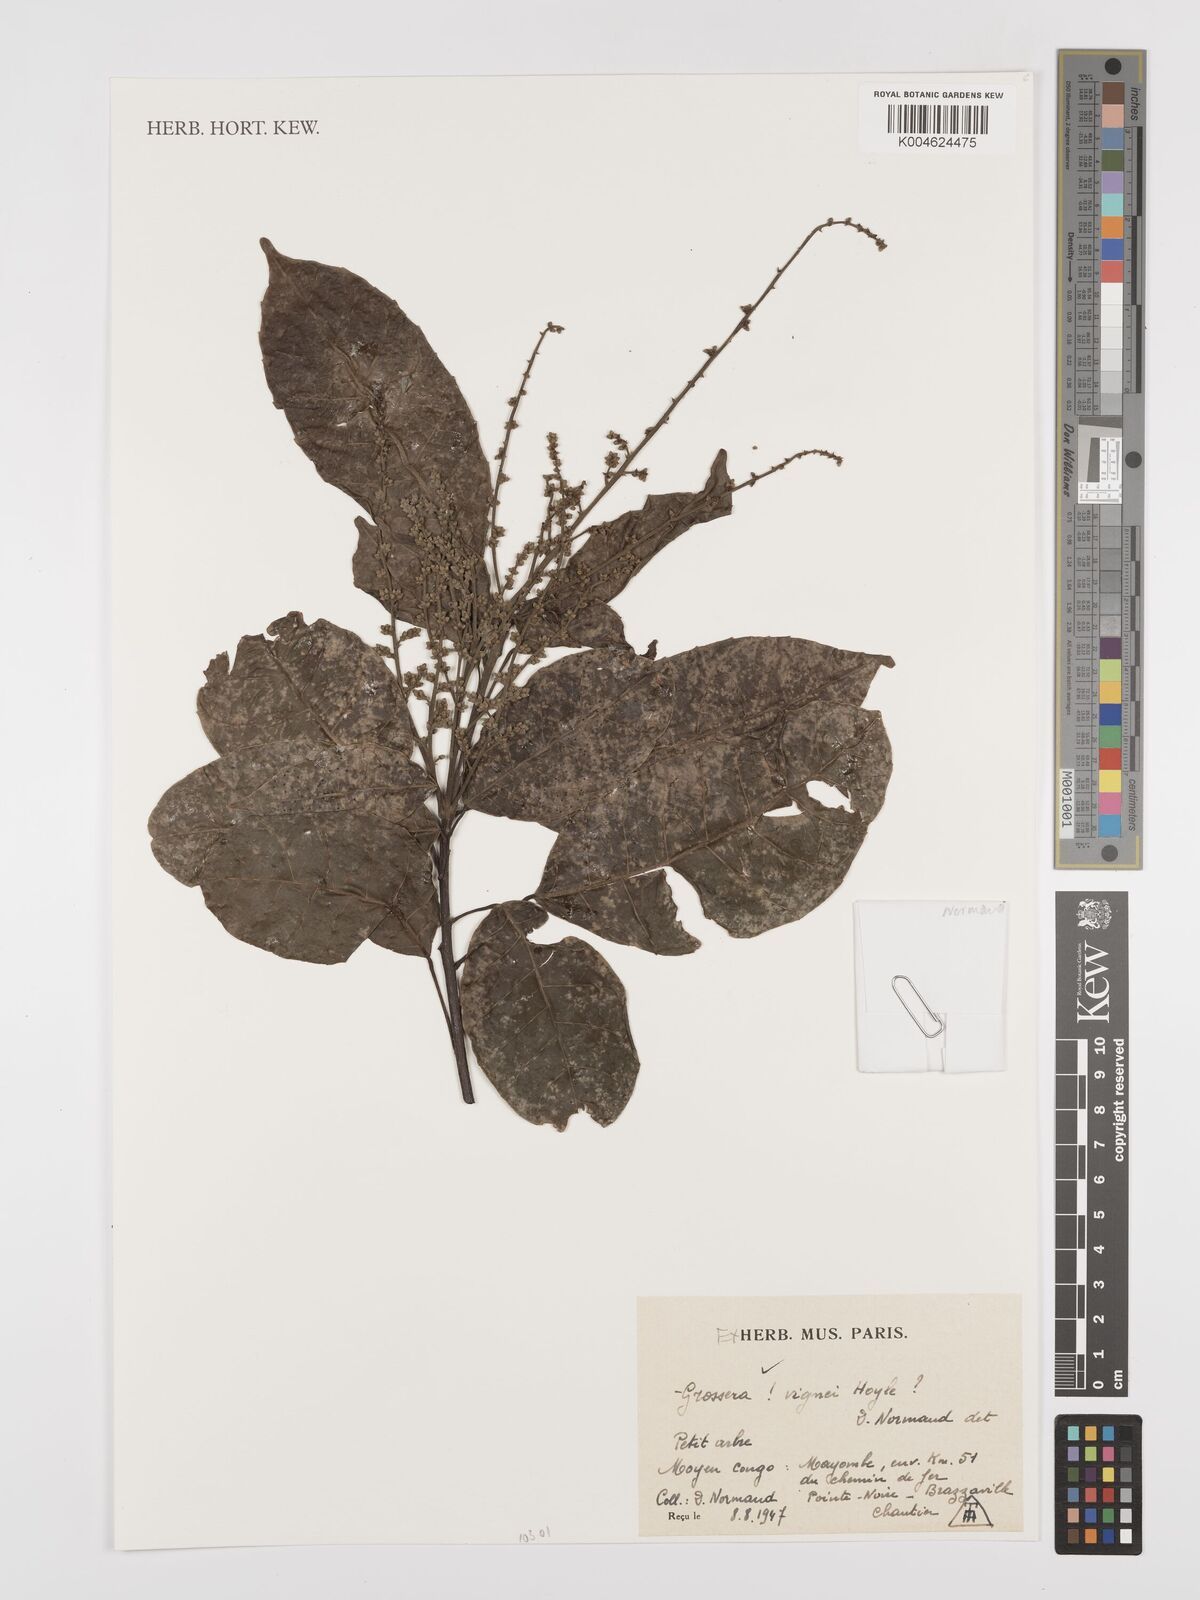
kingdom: Plantae
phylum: Tracheophyta
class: Magnoliopsida
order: Malpighiales
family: Euphorbiaceae
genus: Grossera
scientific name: Grossera vignei
